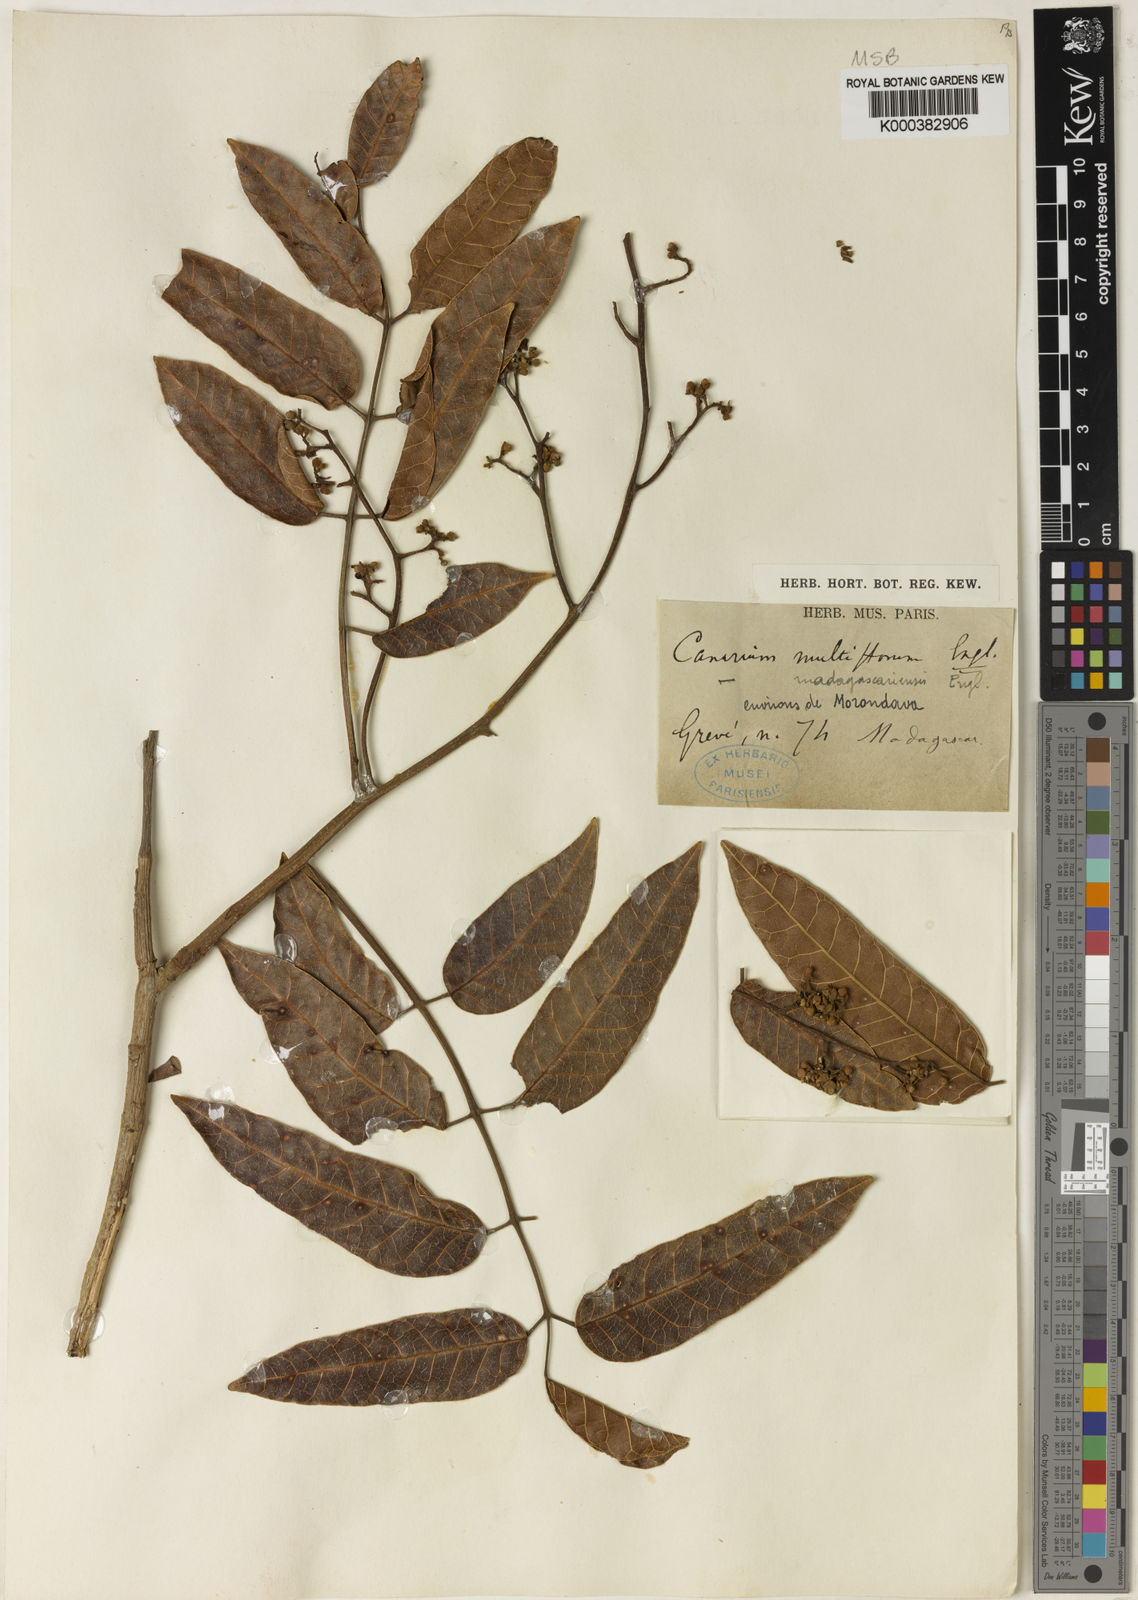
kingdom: Plantae
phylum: Tracheophyta
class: Magnoliopsida
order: Sapindales
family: Burseraceae
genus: Canarium
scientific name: Canarium madagascariense
